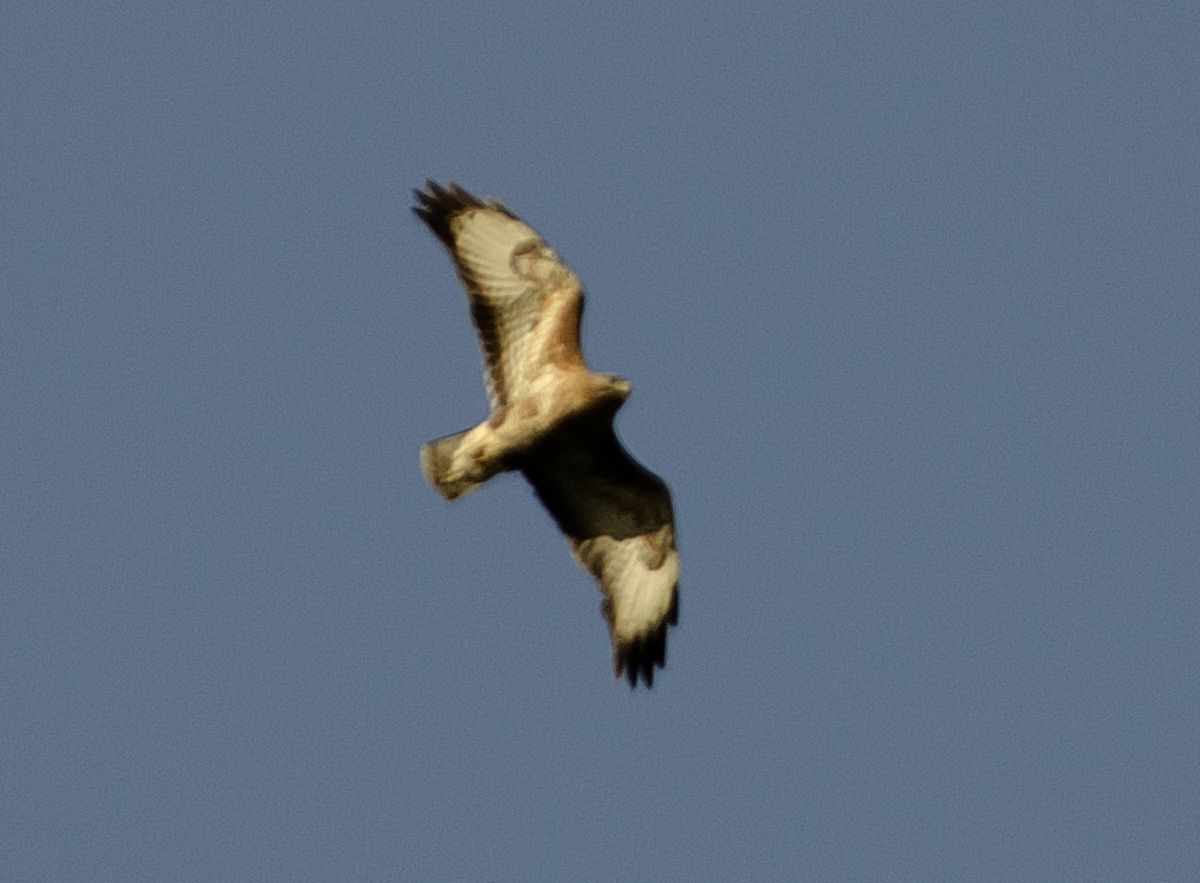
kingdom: Animalia
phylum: Chordata
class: Aves
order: Accipitriformes
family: Accipitridae
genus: Buteo
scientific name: Buteo buteo
